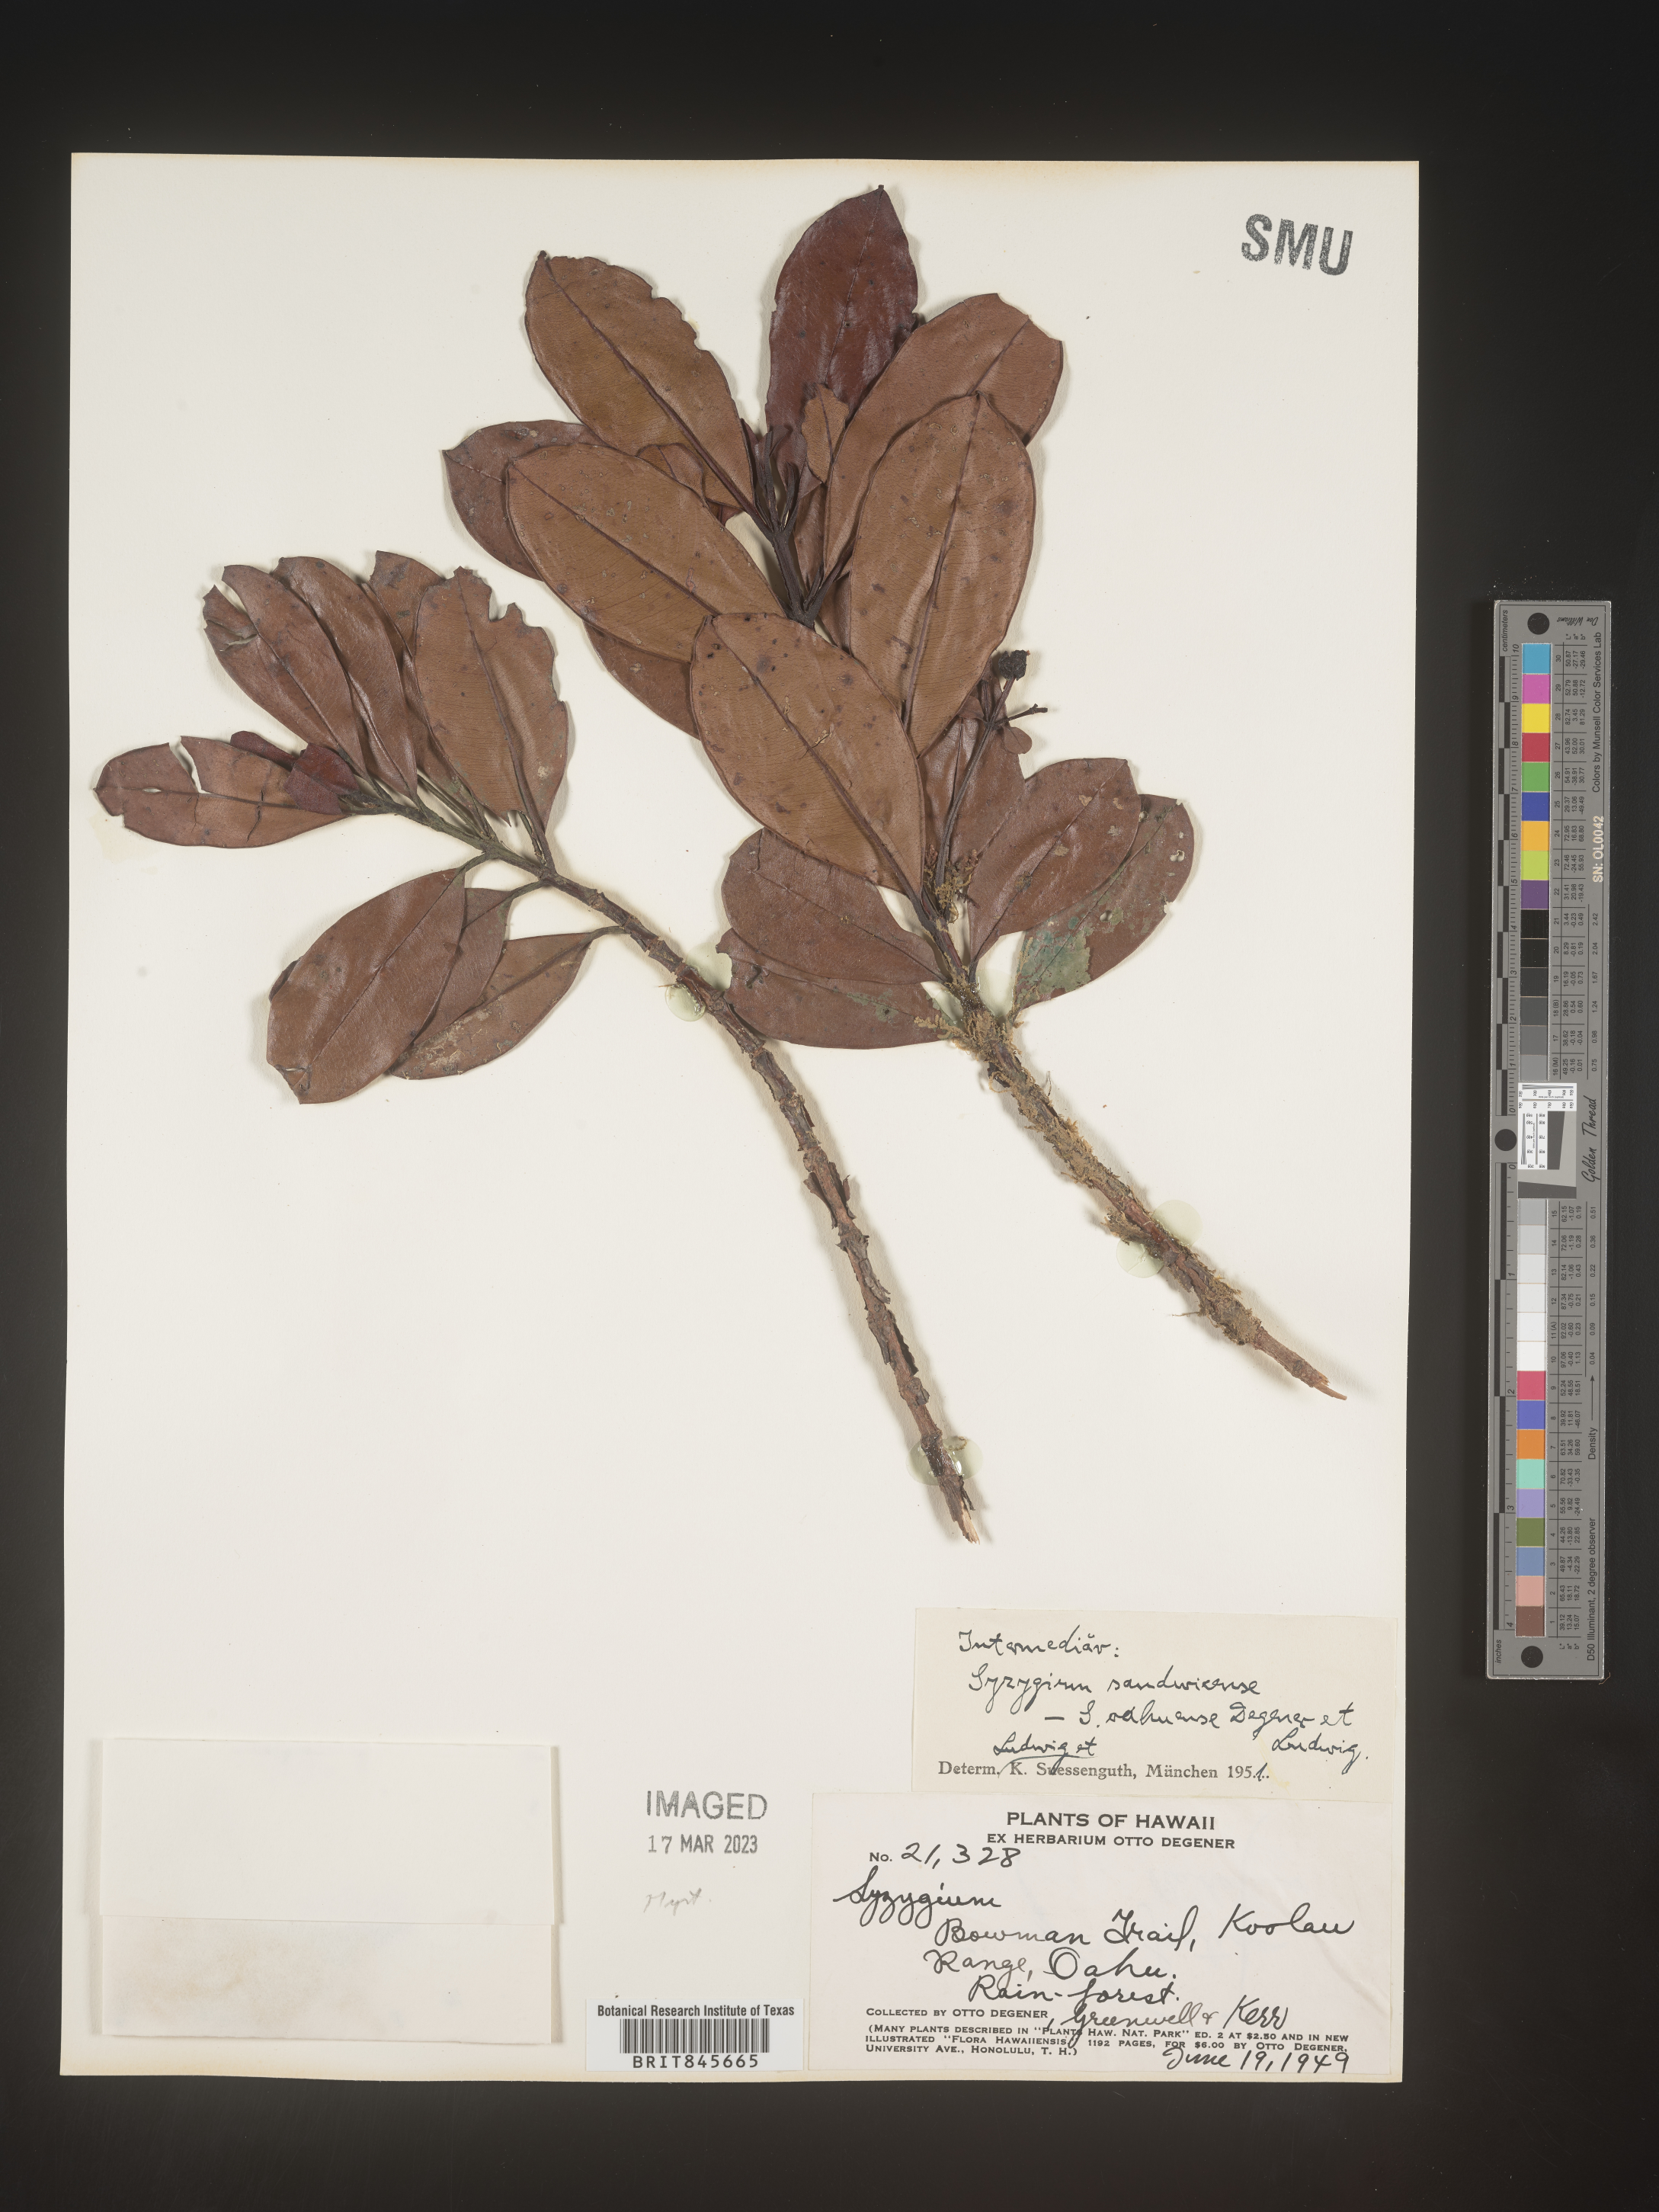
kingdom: Plantae
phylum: Tracheophyta
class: Magnoliopsida
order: Myrtales
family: Myrtaceae
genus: Syzygium
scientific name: Syzygium
